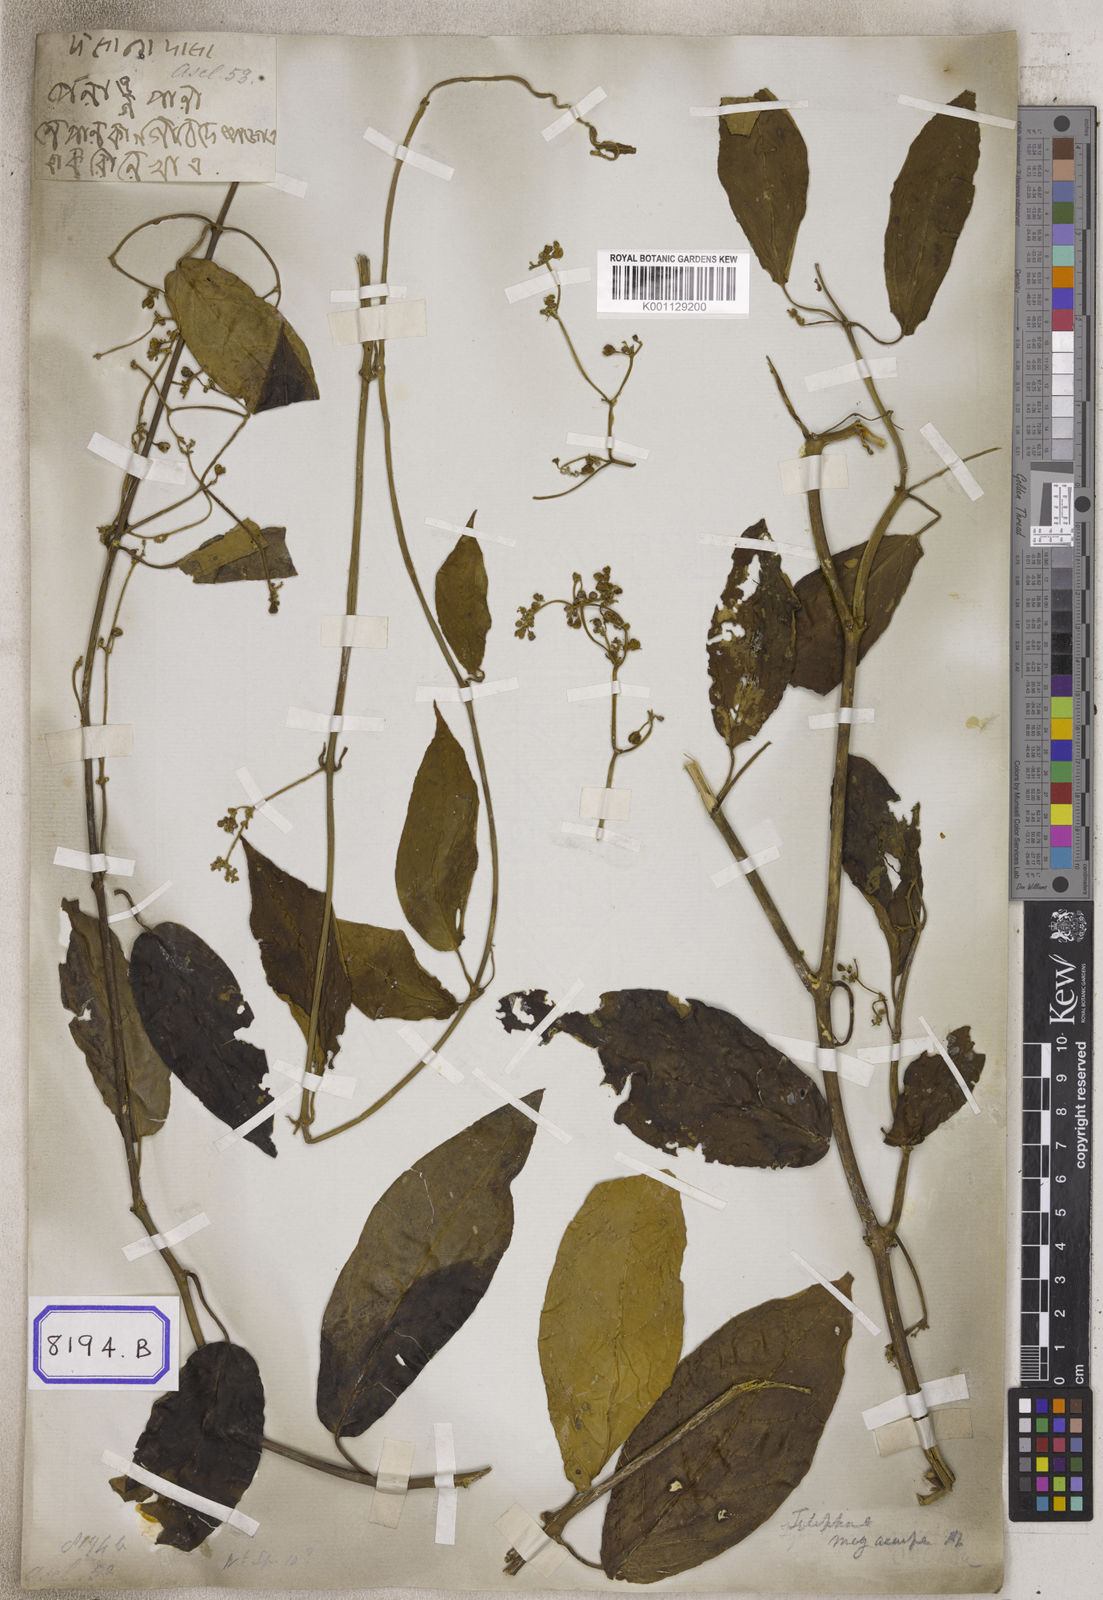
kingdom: Plantae
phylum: Tracheophyta
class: Magnoliopsida
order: Gentianales
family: Apocynaceae
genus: Gongronema
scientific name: Gongronema napalense
